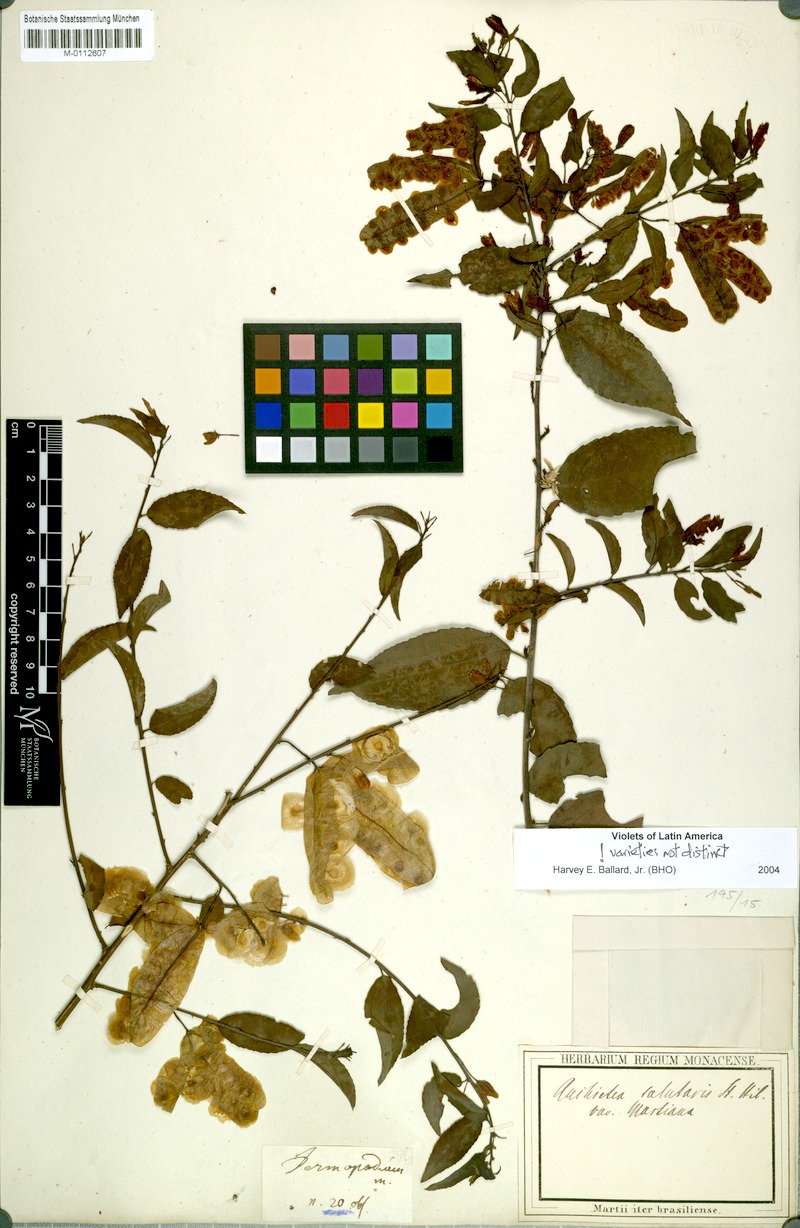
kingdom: Plantae
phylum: Tracheophyta
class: Magnoliopsida
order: Malpighiales
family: Violaceae
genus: Anchietea
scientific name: Anchietea pyrifolia
